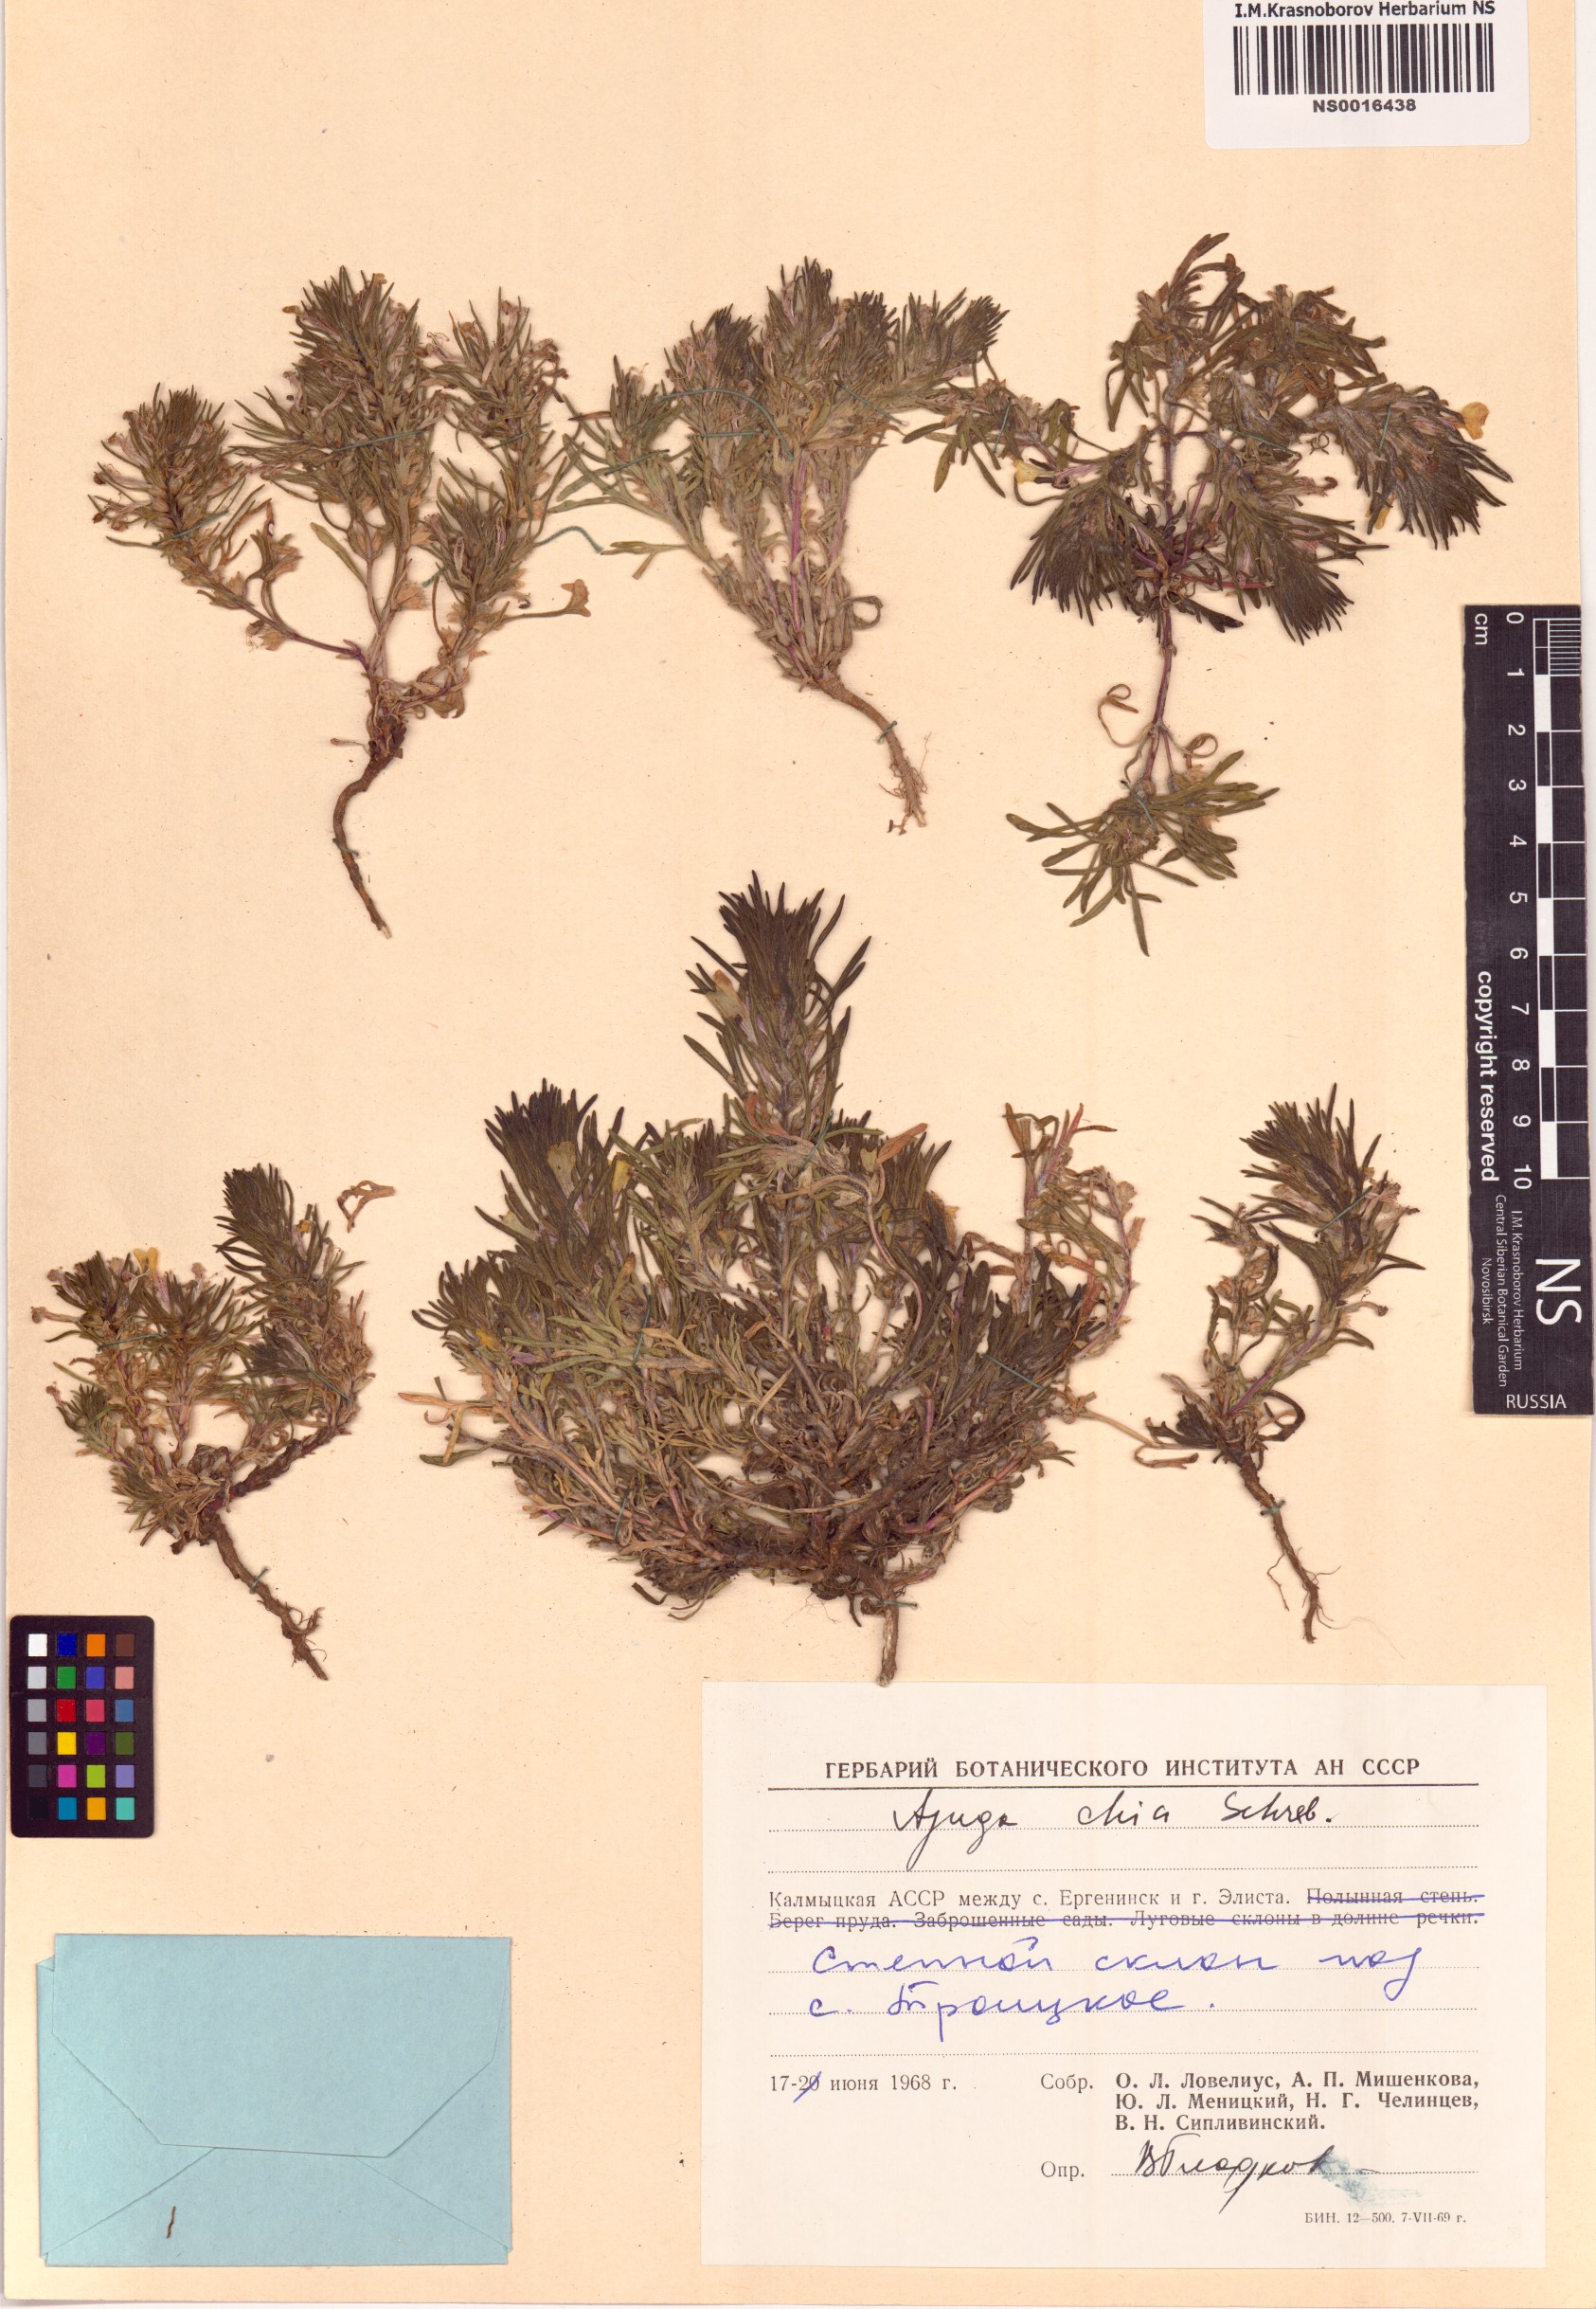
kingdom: Plantae
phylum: Tracheophyta
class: Magnoliopsida
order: Lamiales
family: Lamiaceae
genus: Ajuga
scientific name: Ajuga chamaepitys
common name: Ground-pine
